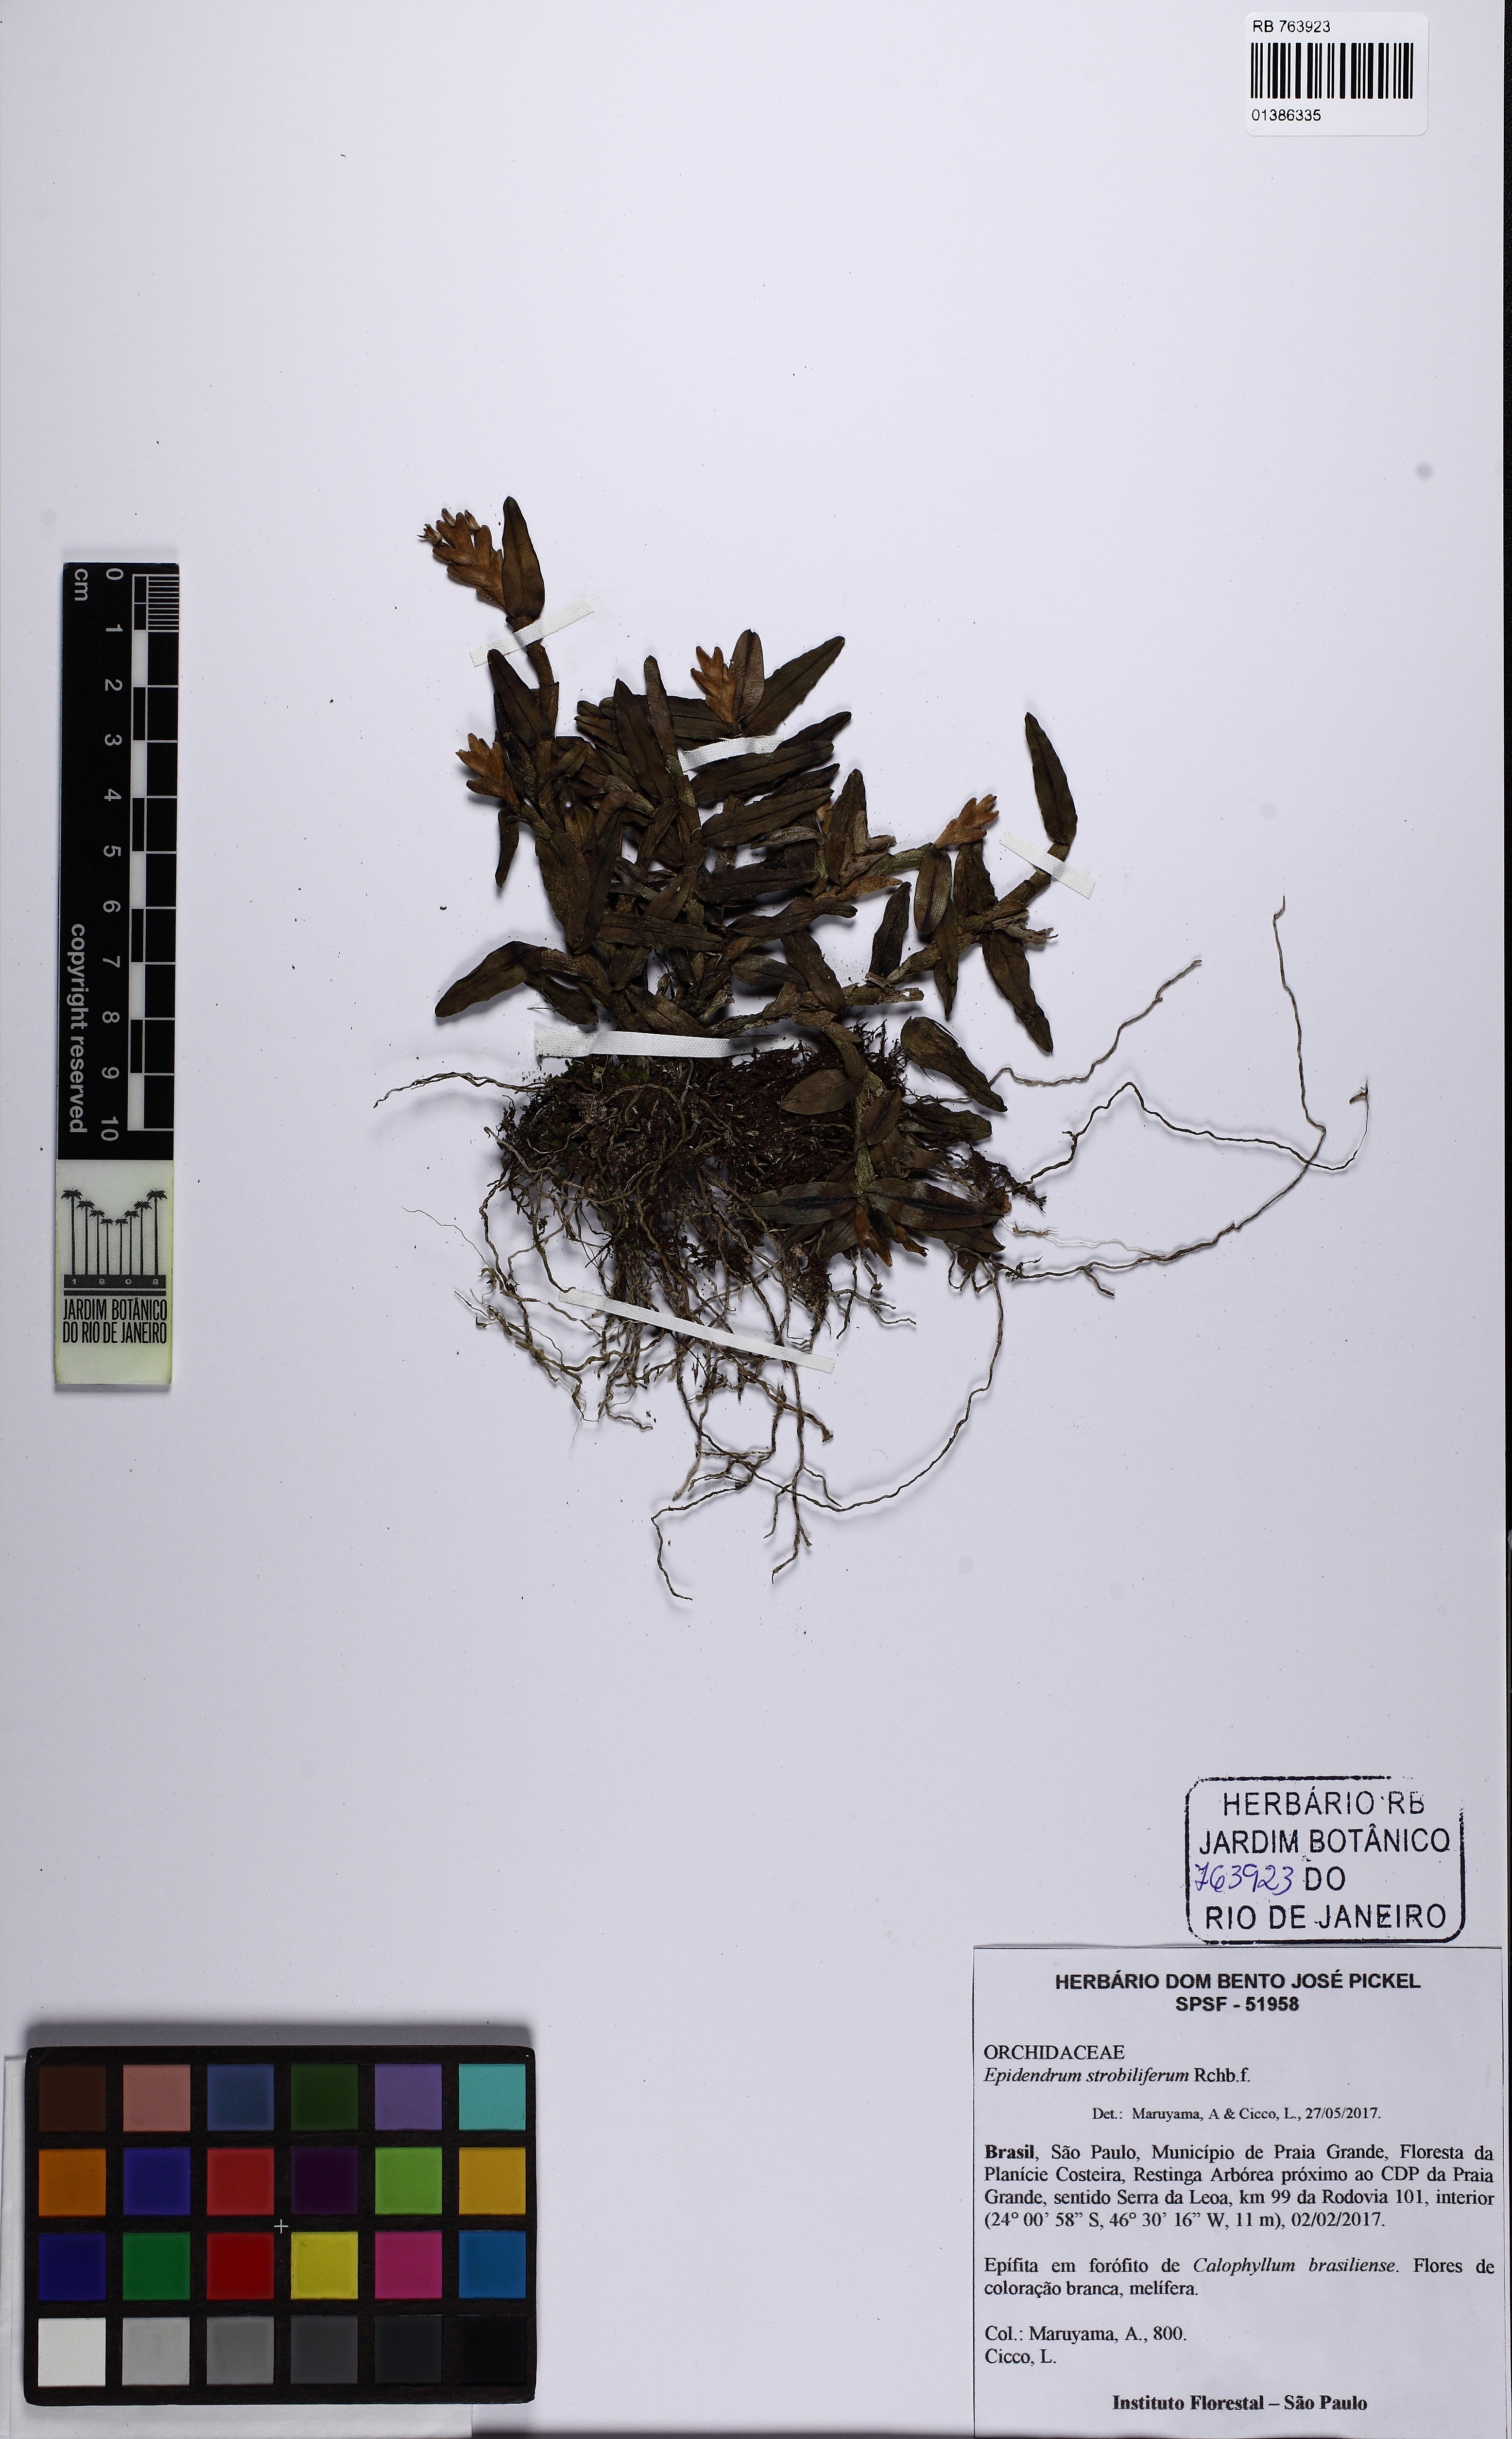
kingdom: Plantae
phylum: Tracheophyta
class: Liliopsida
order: Asparagales
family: Orchidaceae
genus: Epidendrum
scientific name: Epidendrum strobiliferum
